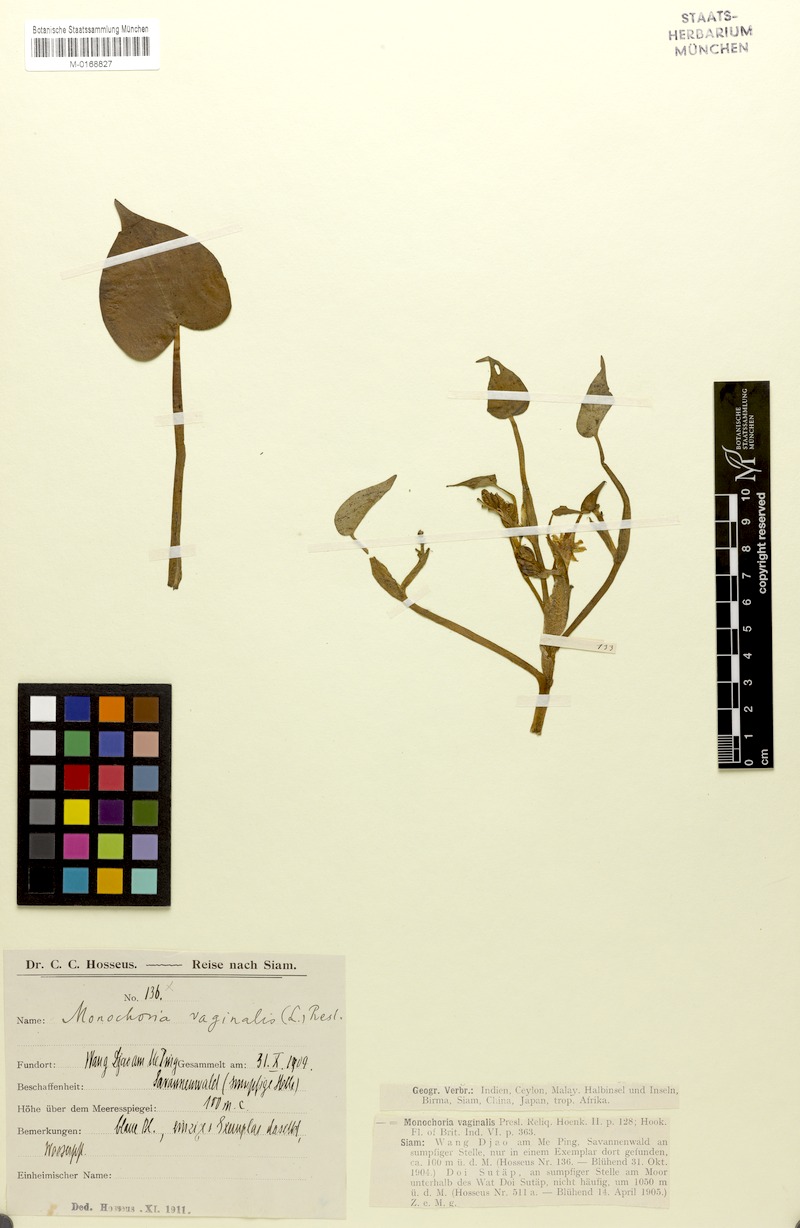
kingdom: Plantae
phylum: Tracheophyta
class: Liliopsida
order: Commelinales
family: Pontederiaceae
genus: Pontederia
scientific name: Pontederia vaginalis
